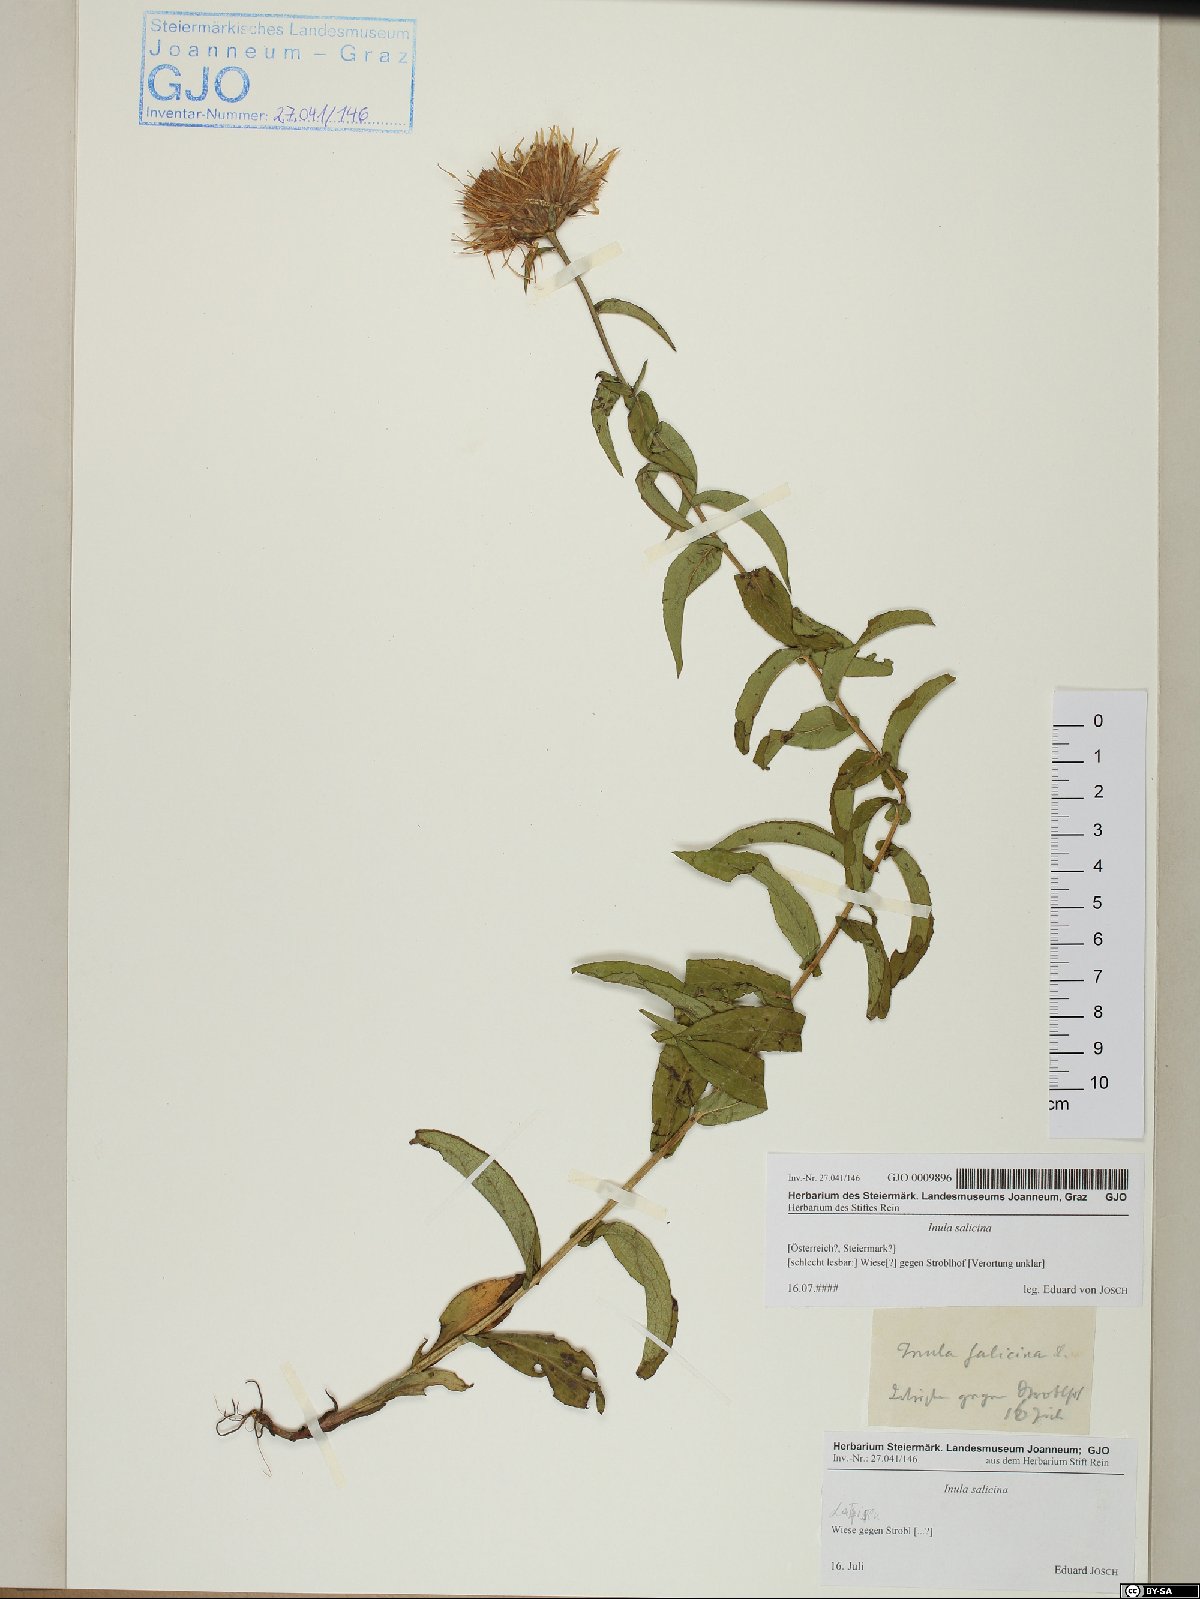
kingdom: Plantae
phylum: Tracheophyta
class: Magnoliopsida
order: Asterales
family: Asteraceae
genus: Pentanema
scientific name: Pentanema salicinum
